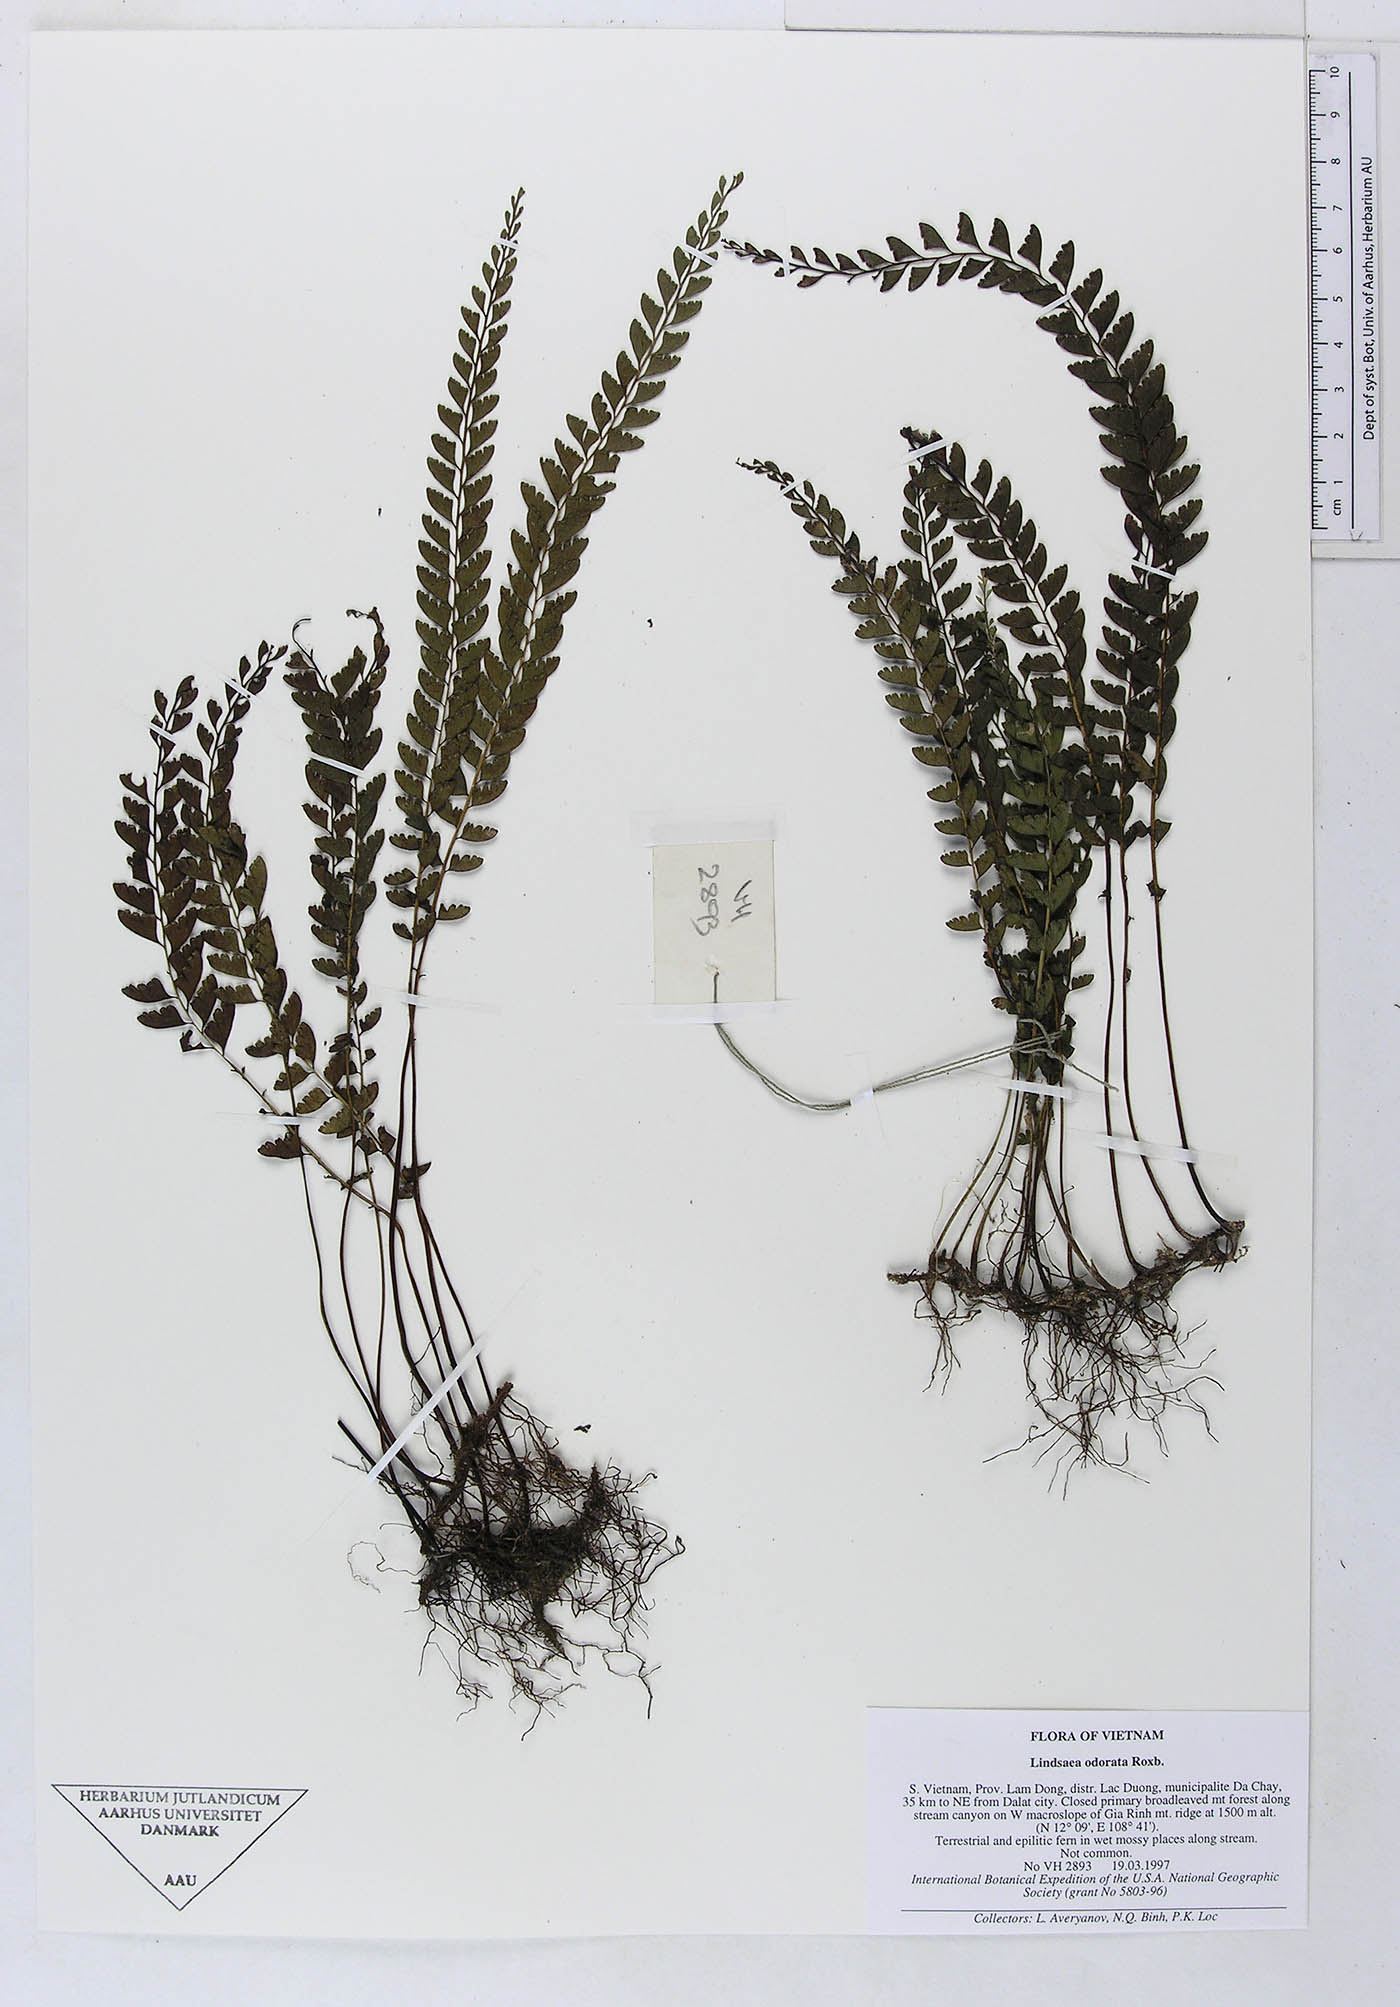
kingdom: Plantae
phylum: Tracheophyta
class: Polypodiopsida
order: Polypodiales
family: Lindsaeaceae
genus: Osmolindsaea
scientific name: Osmolindsaea odorata
